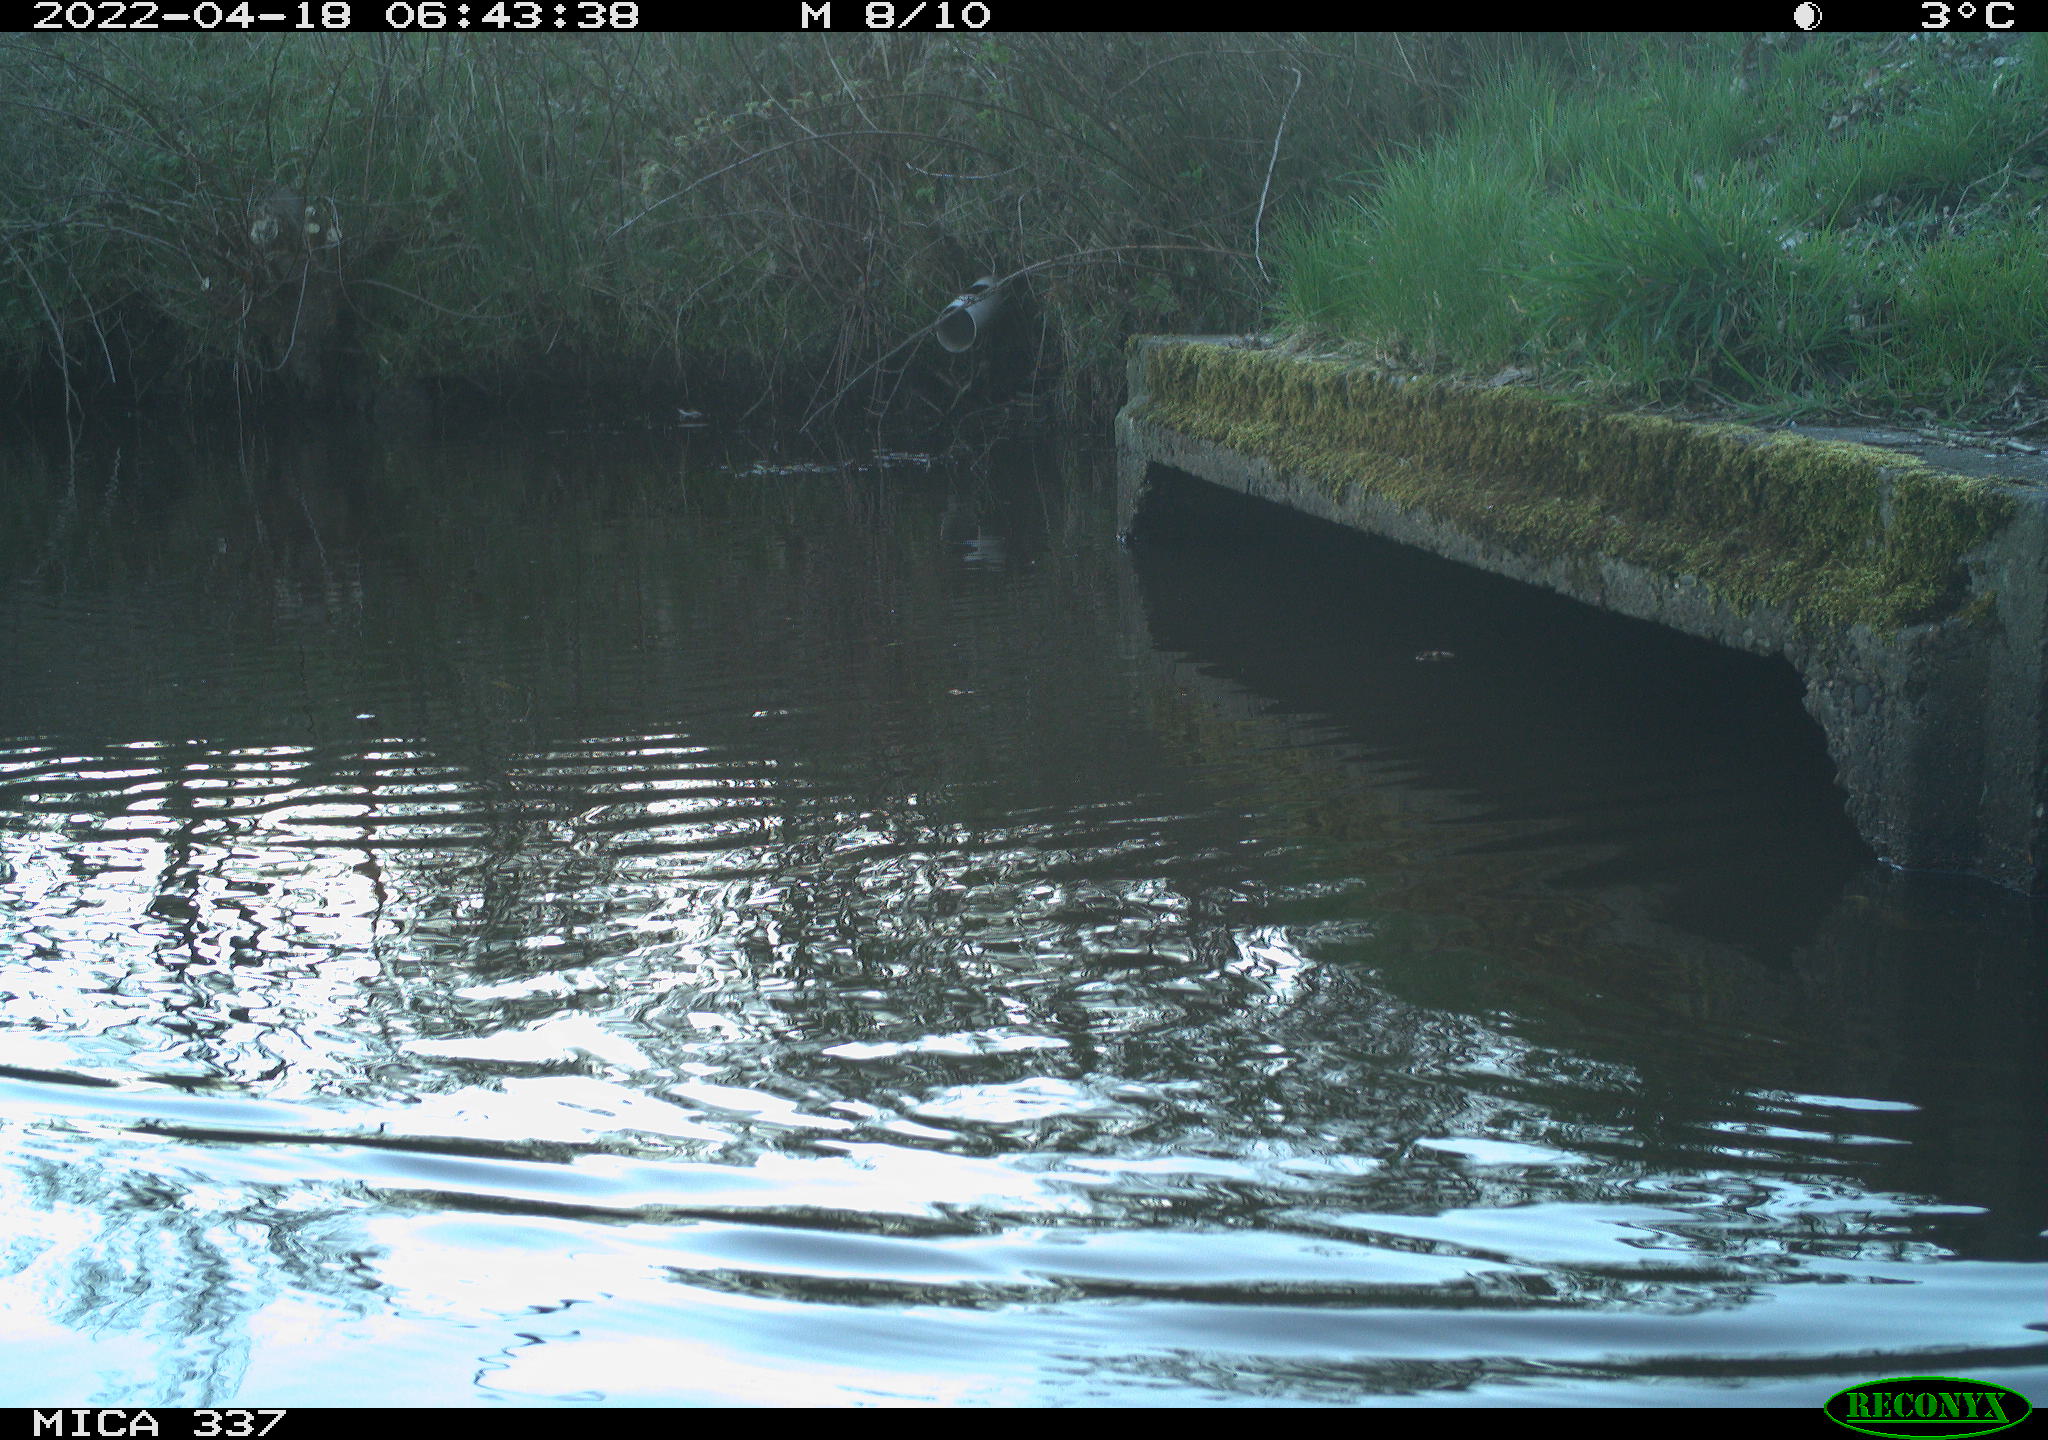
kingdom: Animalia
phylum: Chordata
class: Aves
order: Gruiformes
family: Rallidae
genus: Gallinula
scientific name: Gallinula chloropus
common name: Common moorhen
